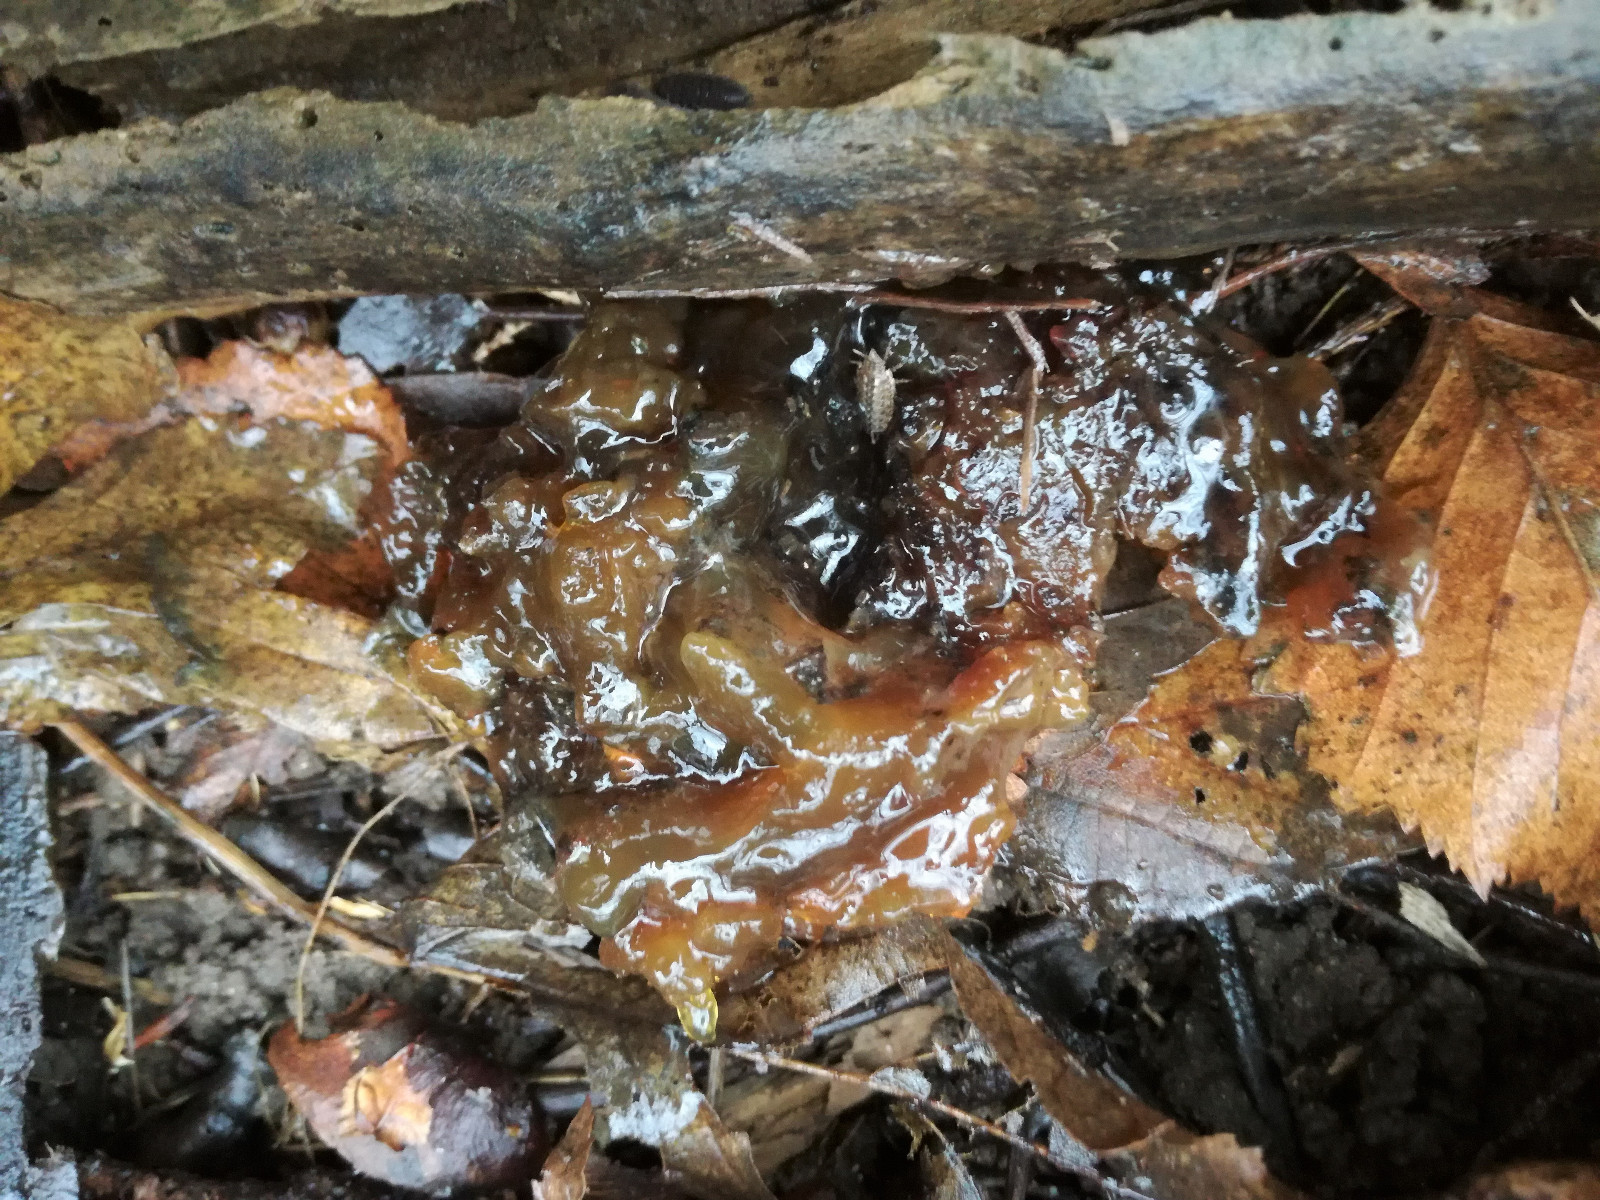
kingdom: Fungi
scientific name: Fungi
